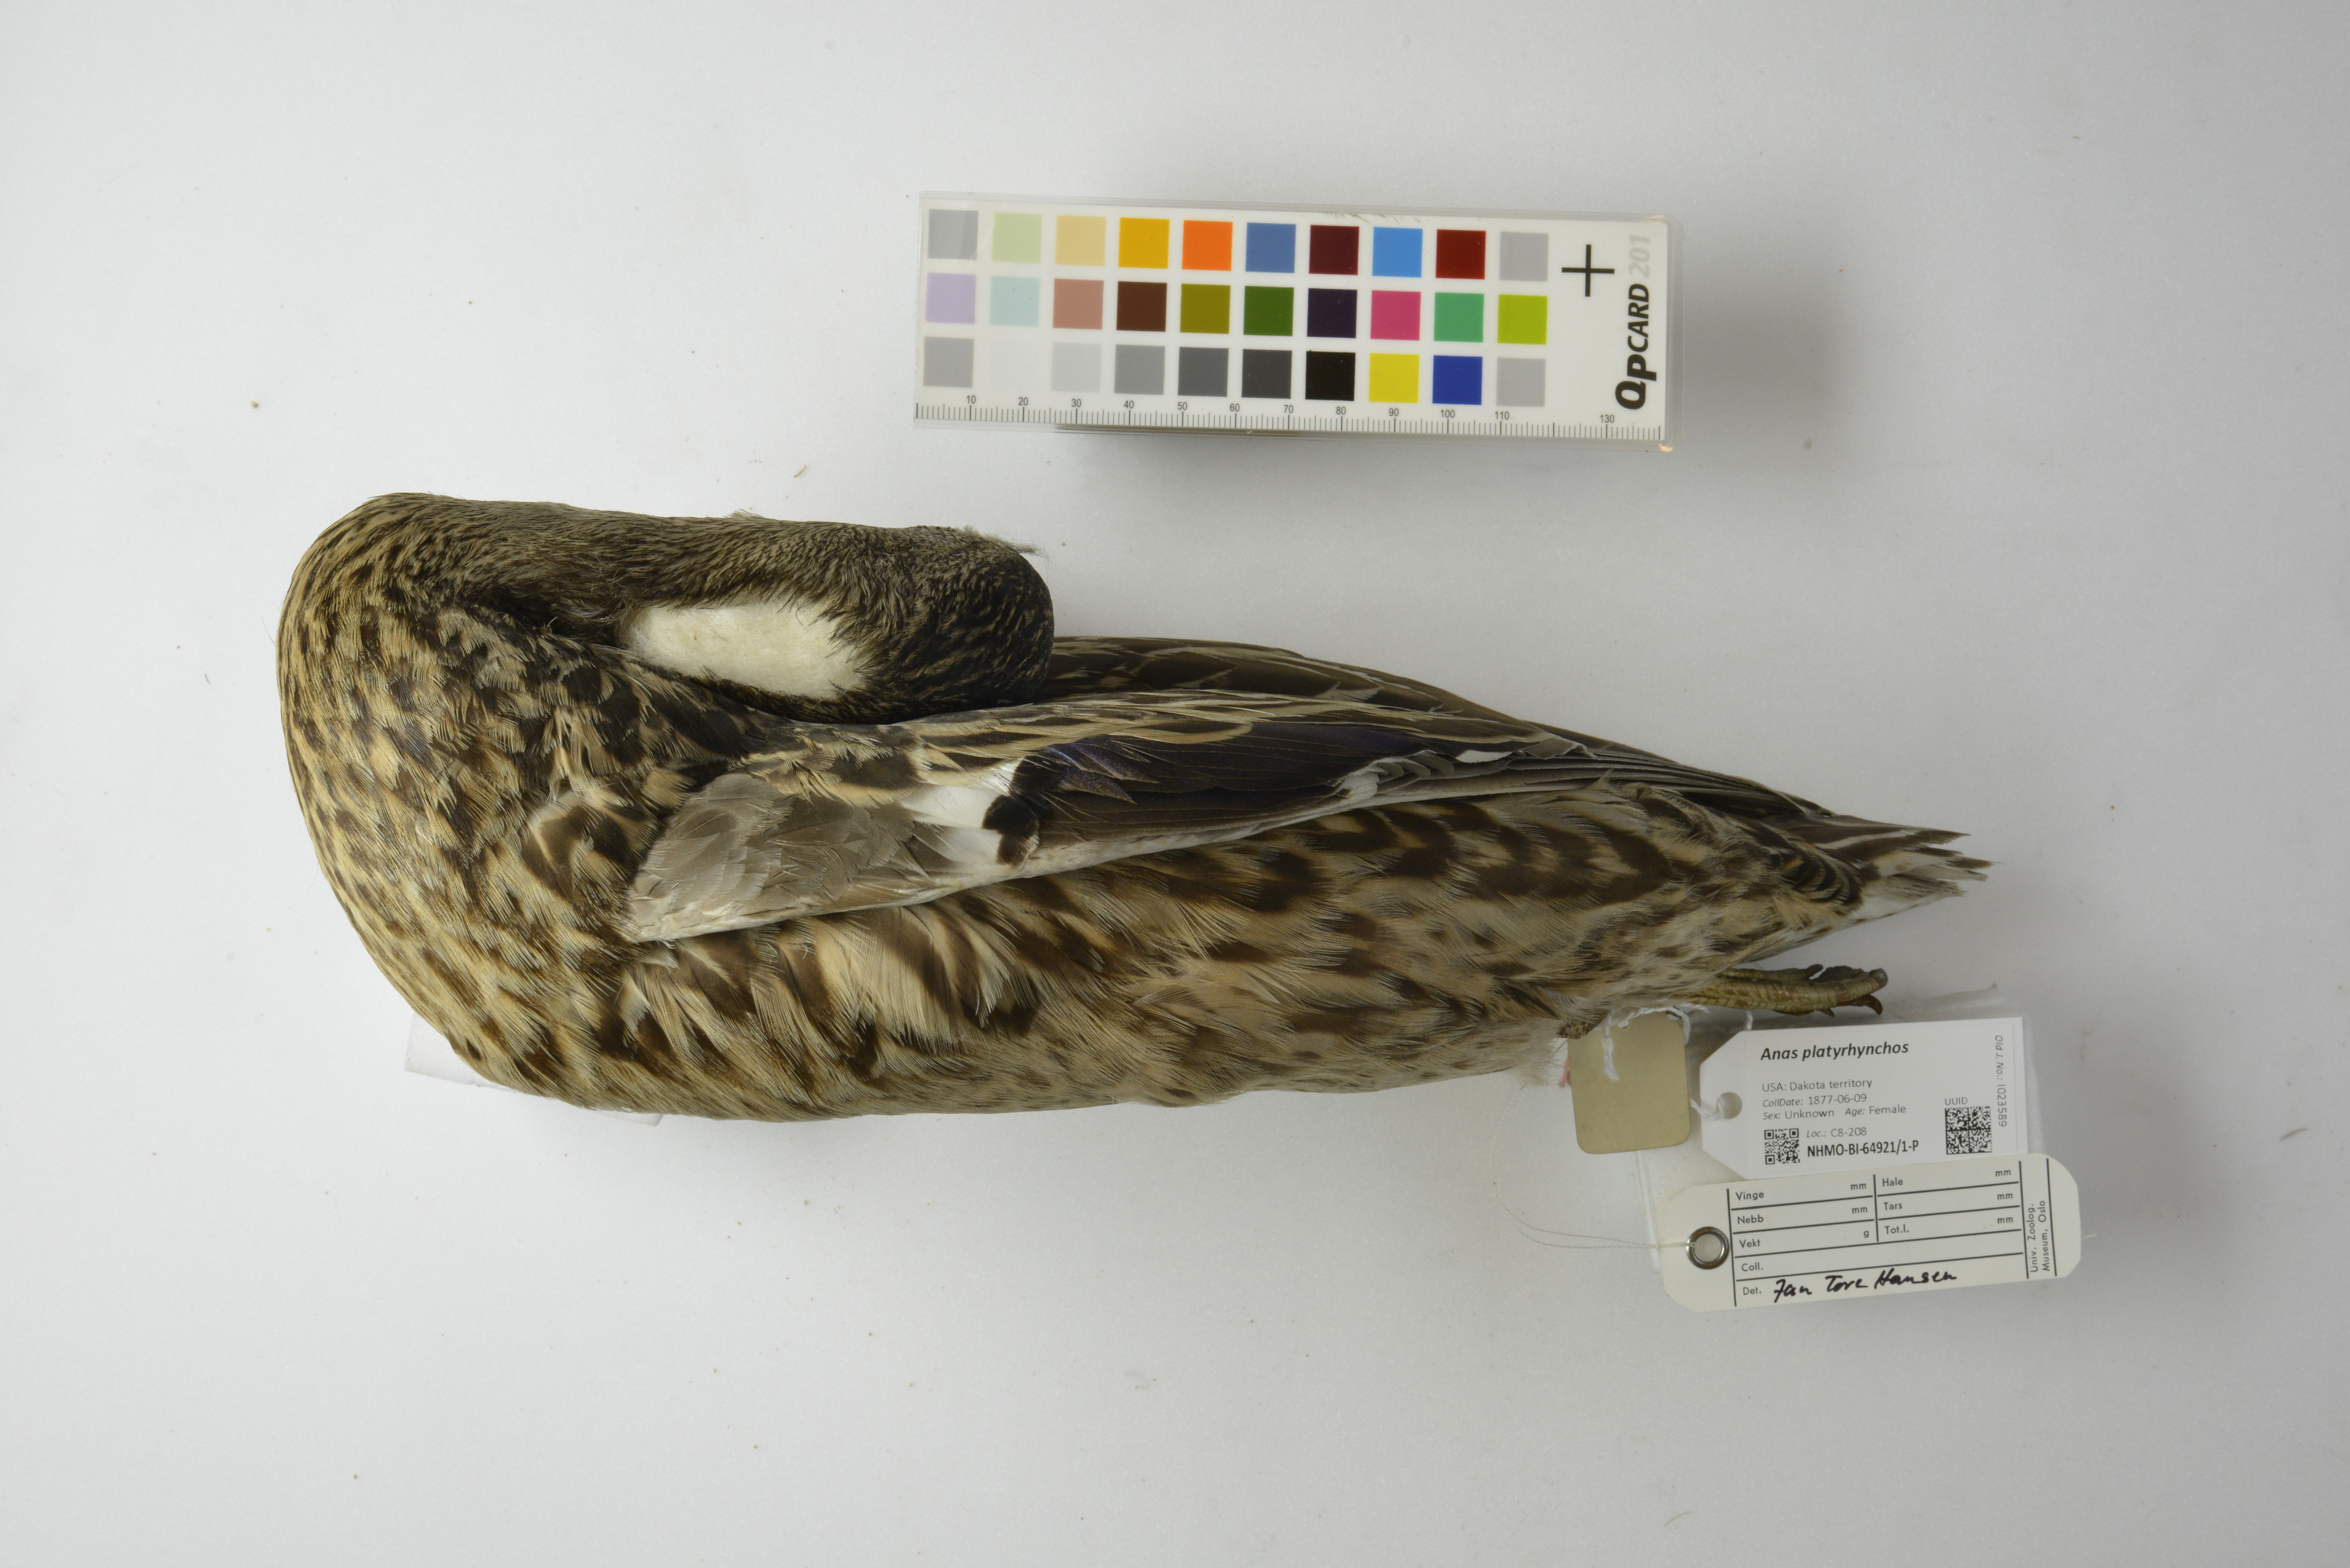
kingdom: Animalia
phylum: Chordata
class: Aves
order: Anseriformes
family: Anatidae
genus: Anas
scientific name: Anas platyrhynchos
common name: Mallard
